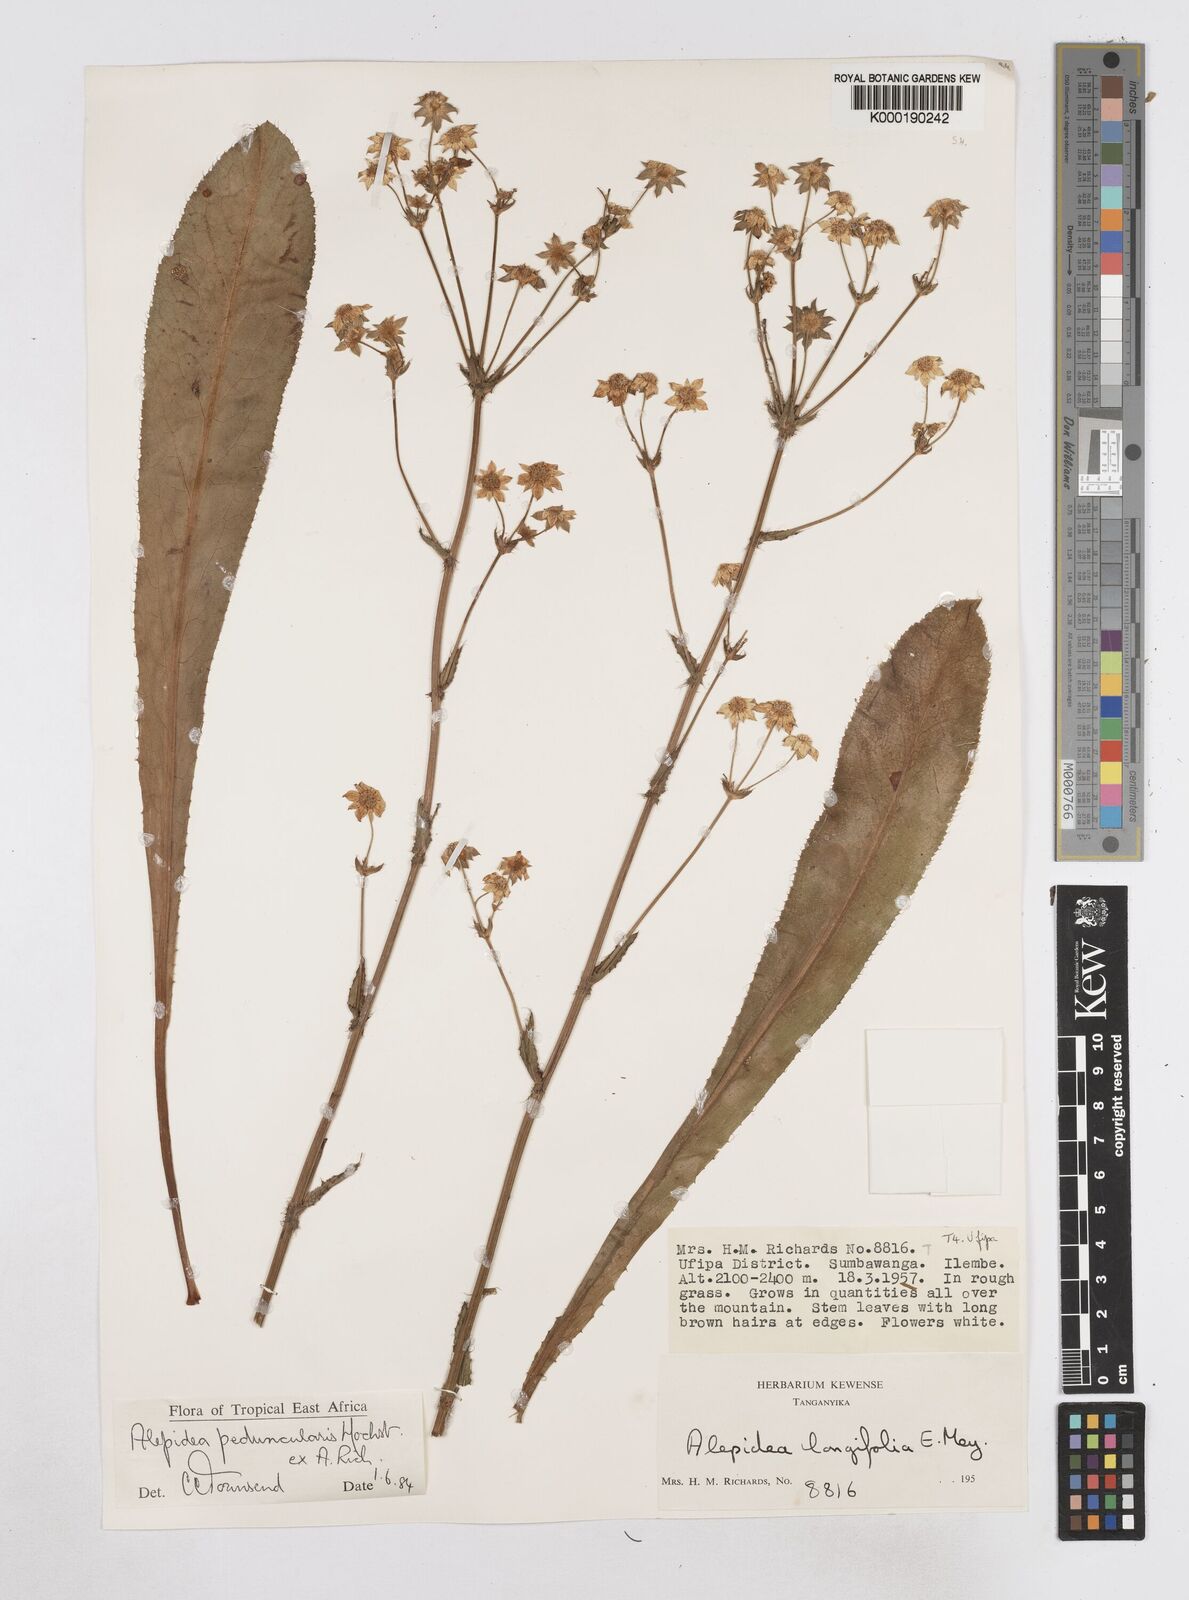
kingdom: Plantae
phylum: Tracheophyta
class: Magnoliopsida
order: Apiales
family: Apiaceae
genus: Alepidea
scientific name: Alepidea peduncularis
